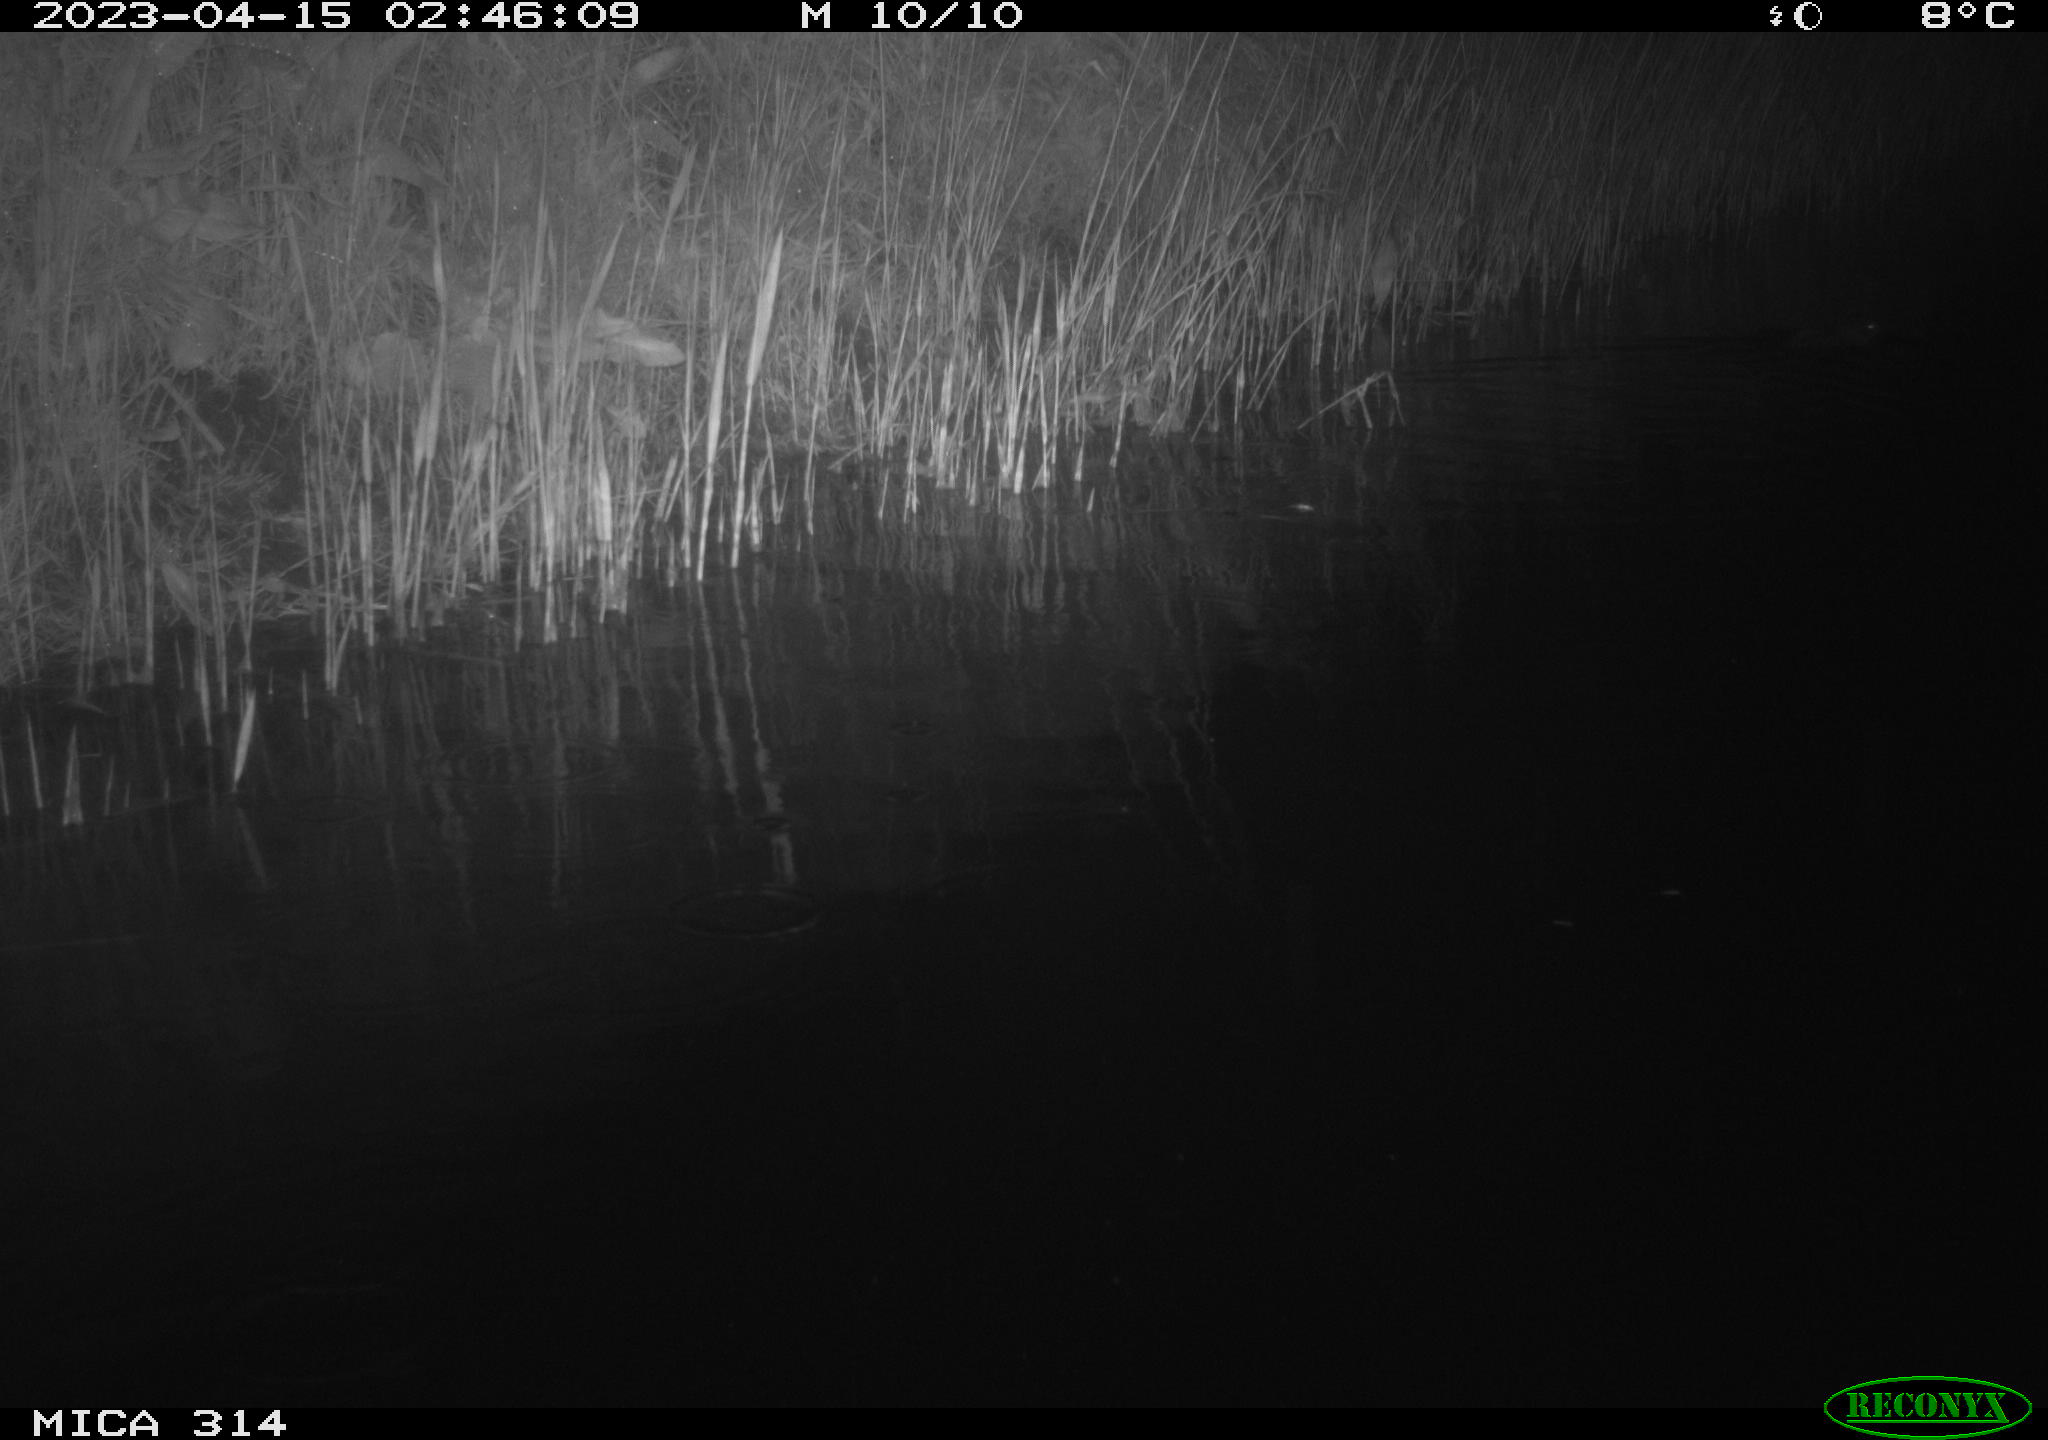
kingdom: Animalia
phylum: Chordata
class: Mammalia
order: Rodentia
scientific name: Rodentia
